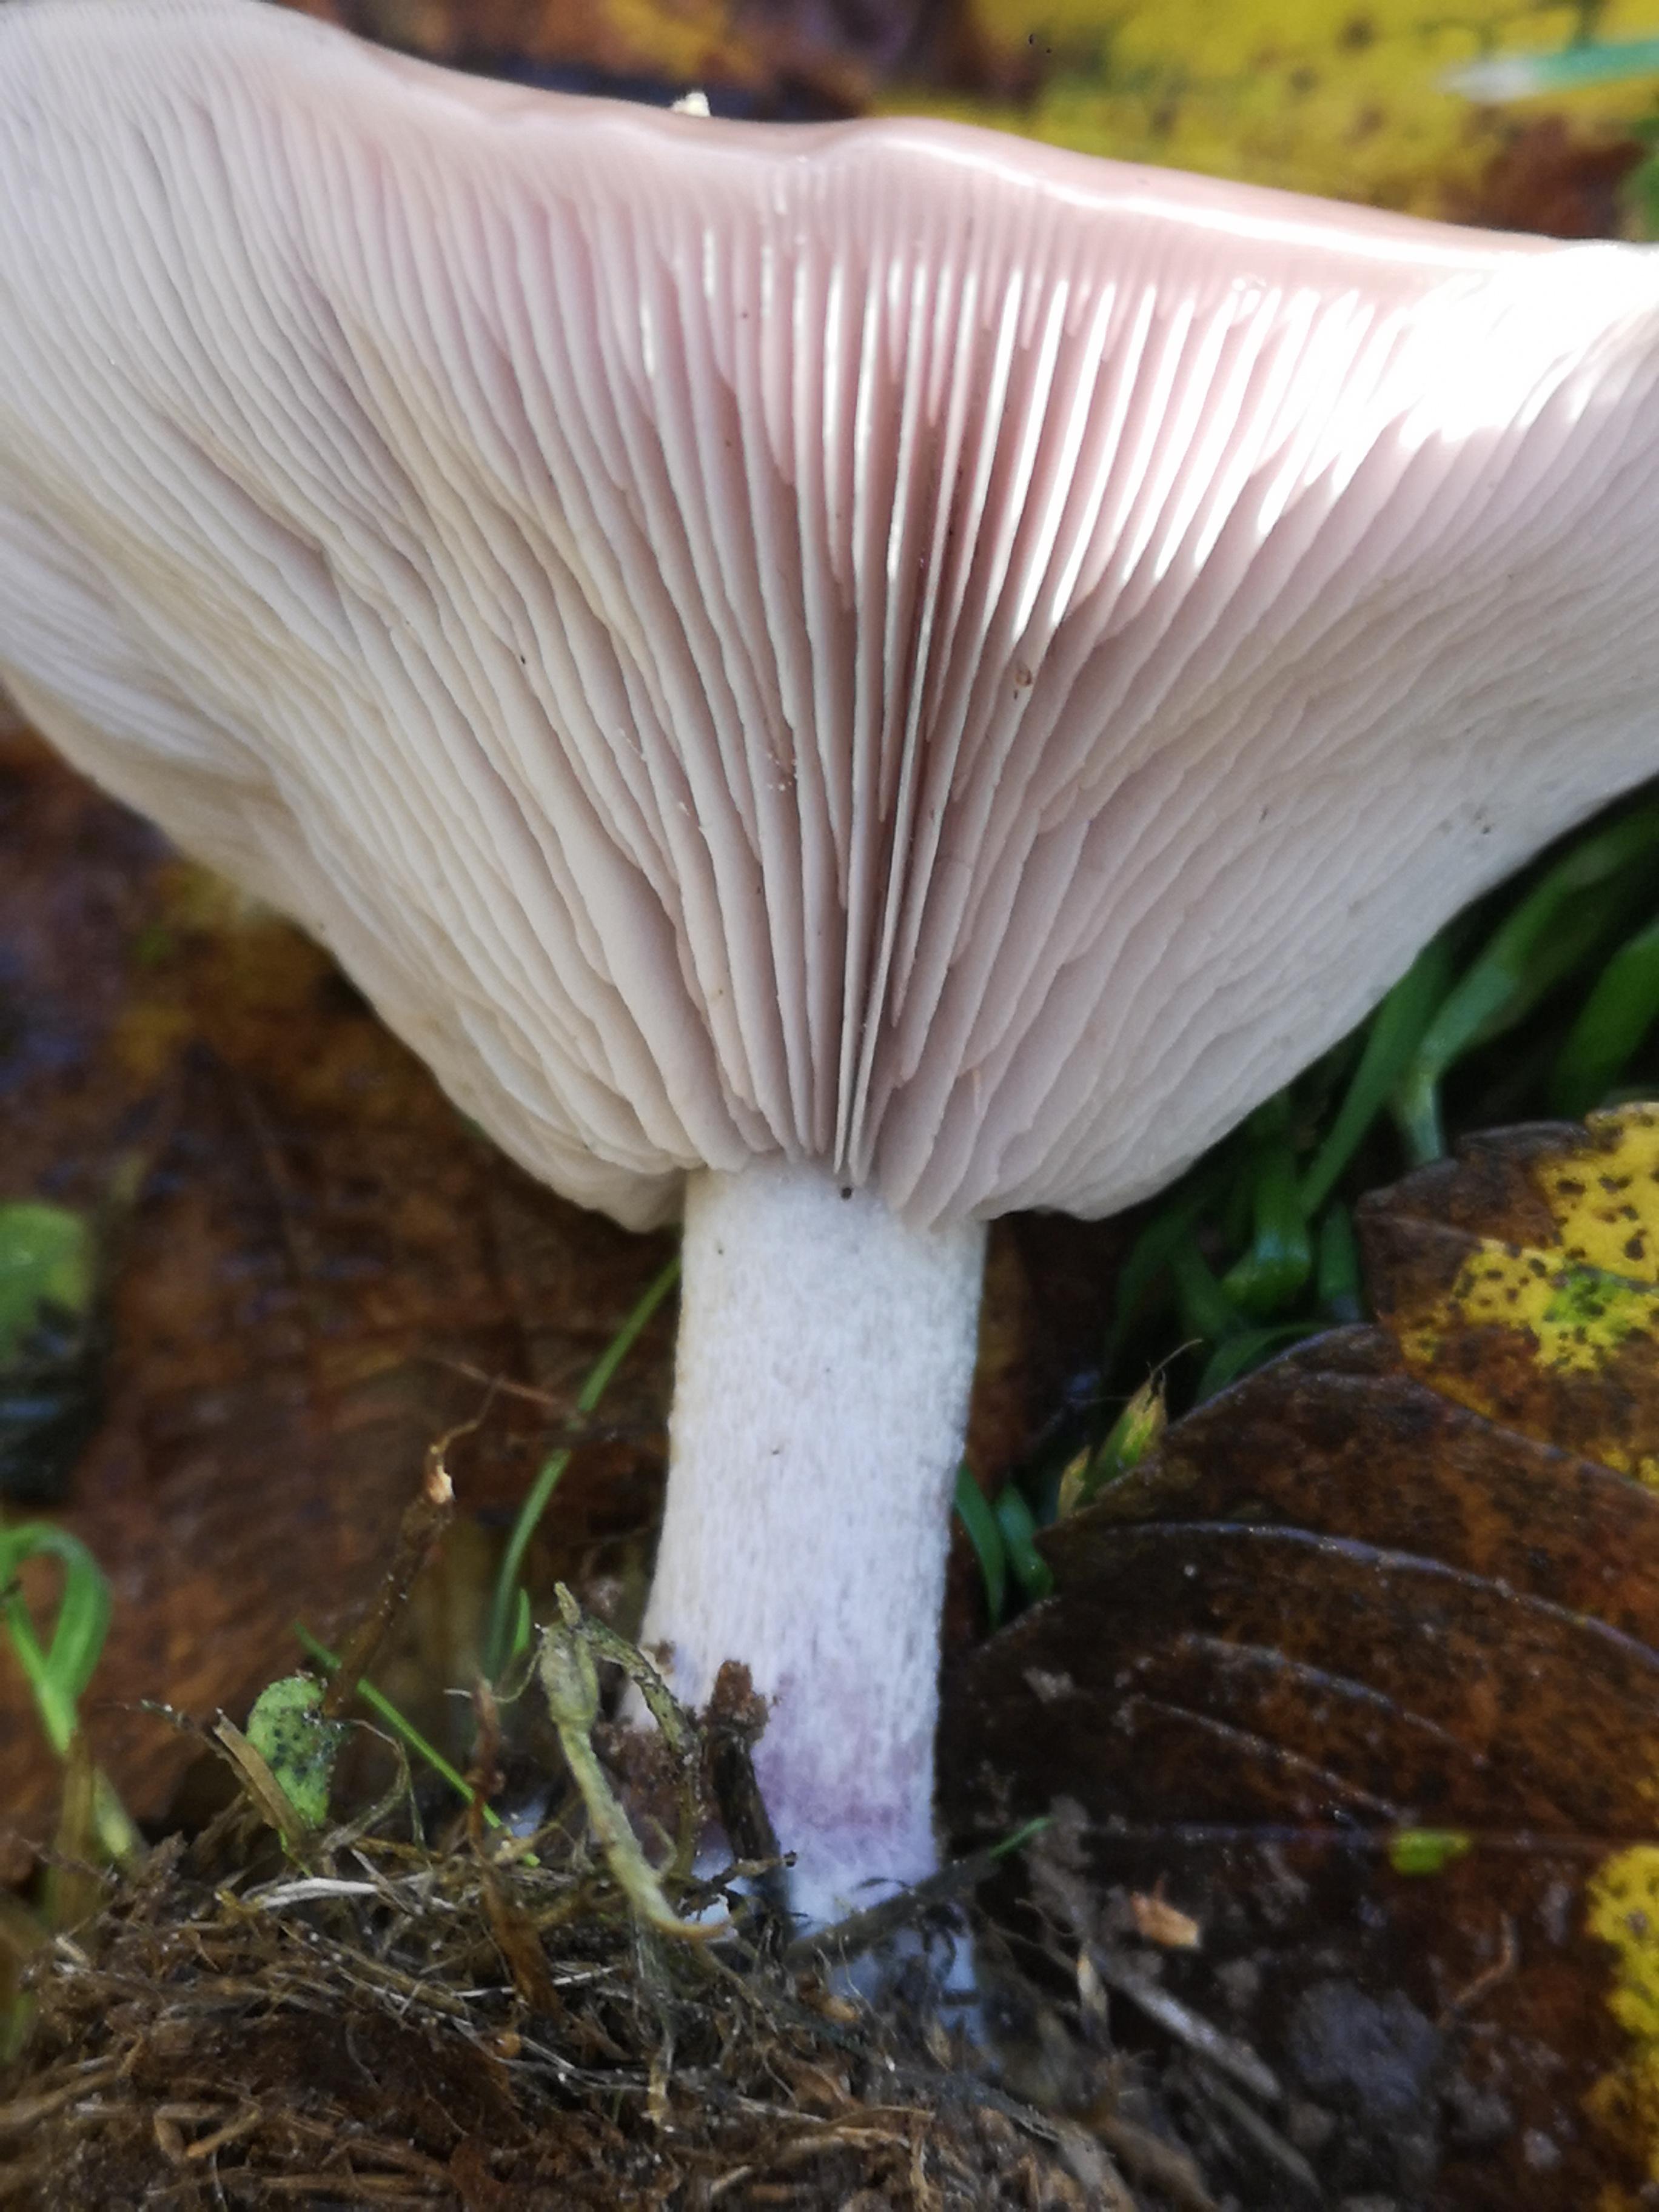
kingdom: Fungi
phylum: Basidiomycota
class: Agaricomycetes
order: Agaricales
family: Tricholomataceae
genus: Lepista
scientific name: Lepista nuda
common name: violet hekseringshat
